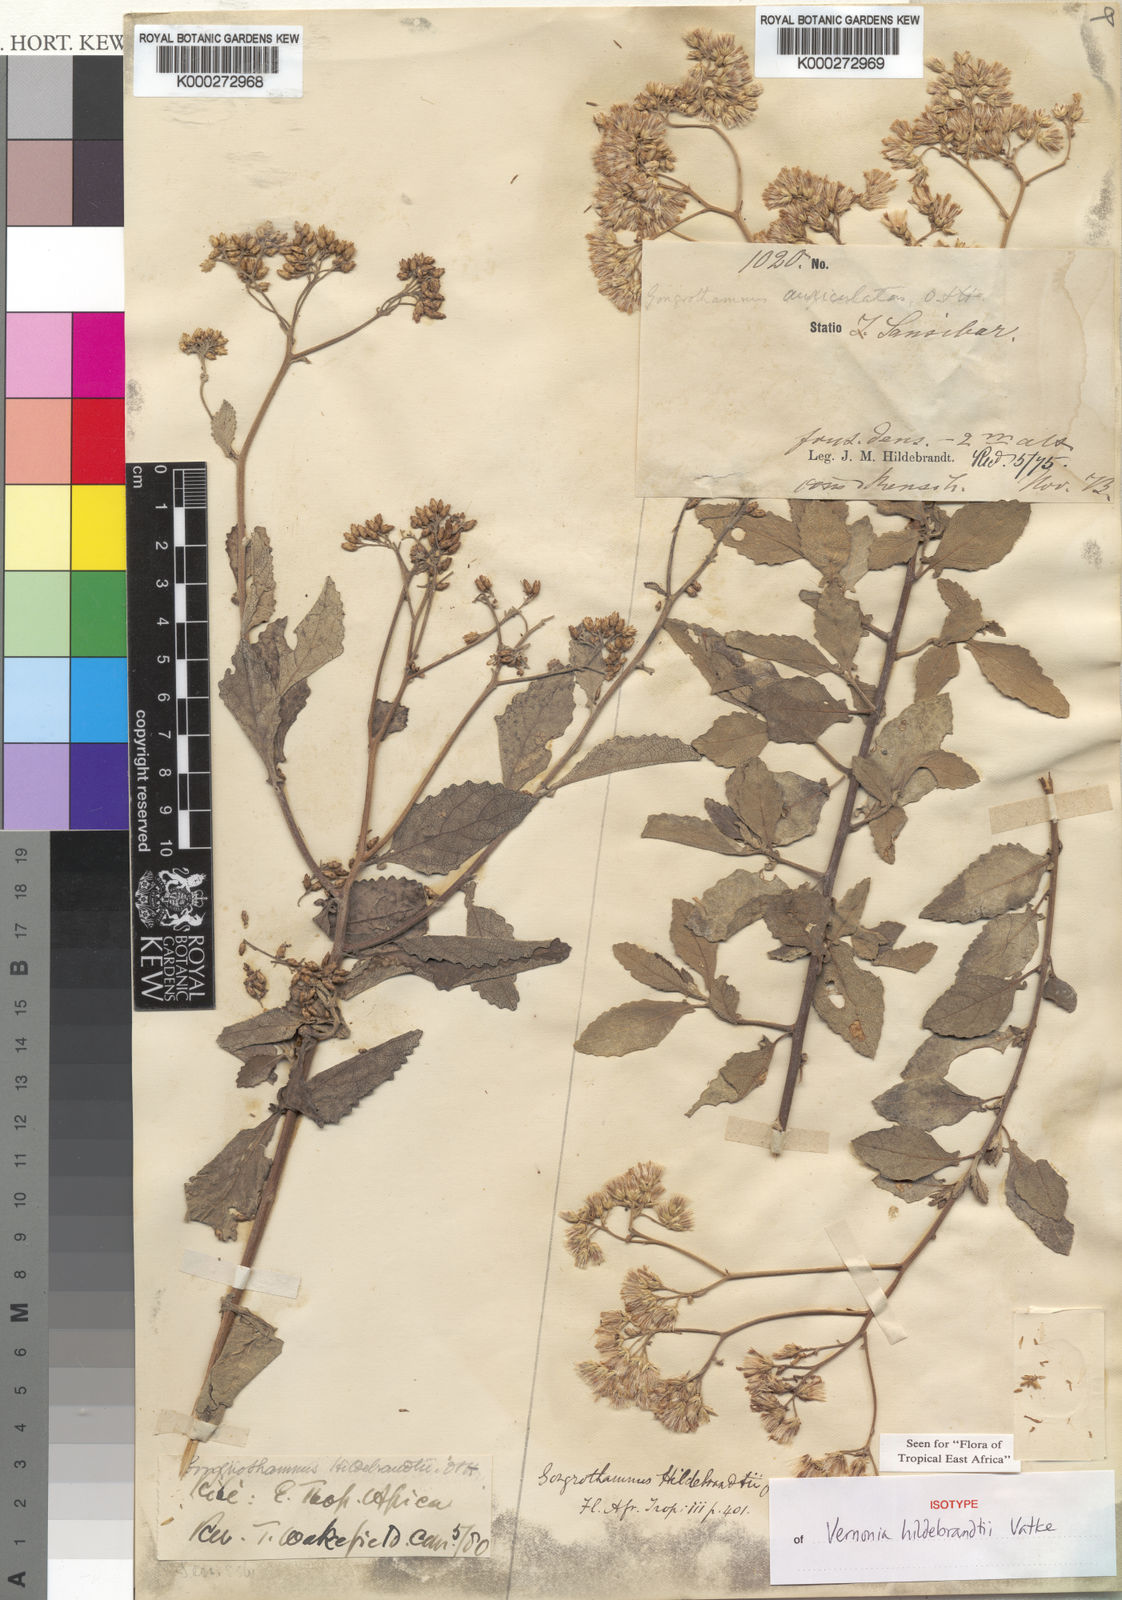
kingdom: Plantae
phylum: Tracheophyta
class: Magnoliopsida
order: Asterales
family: Asteraceae
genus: Jeffreycia
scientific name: Jeffreycia hildebrandtii
